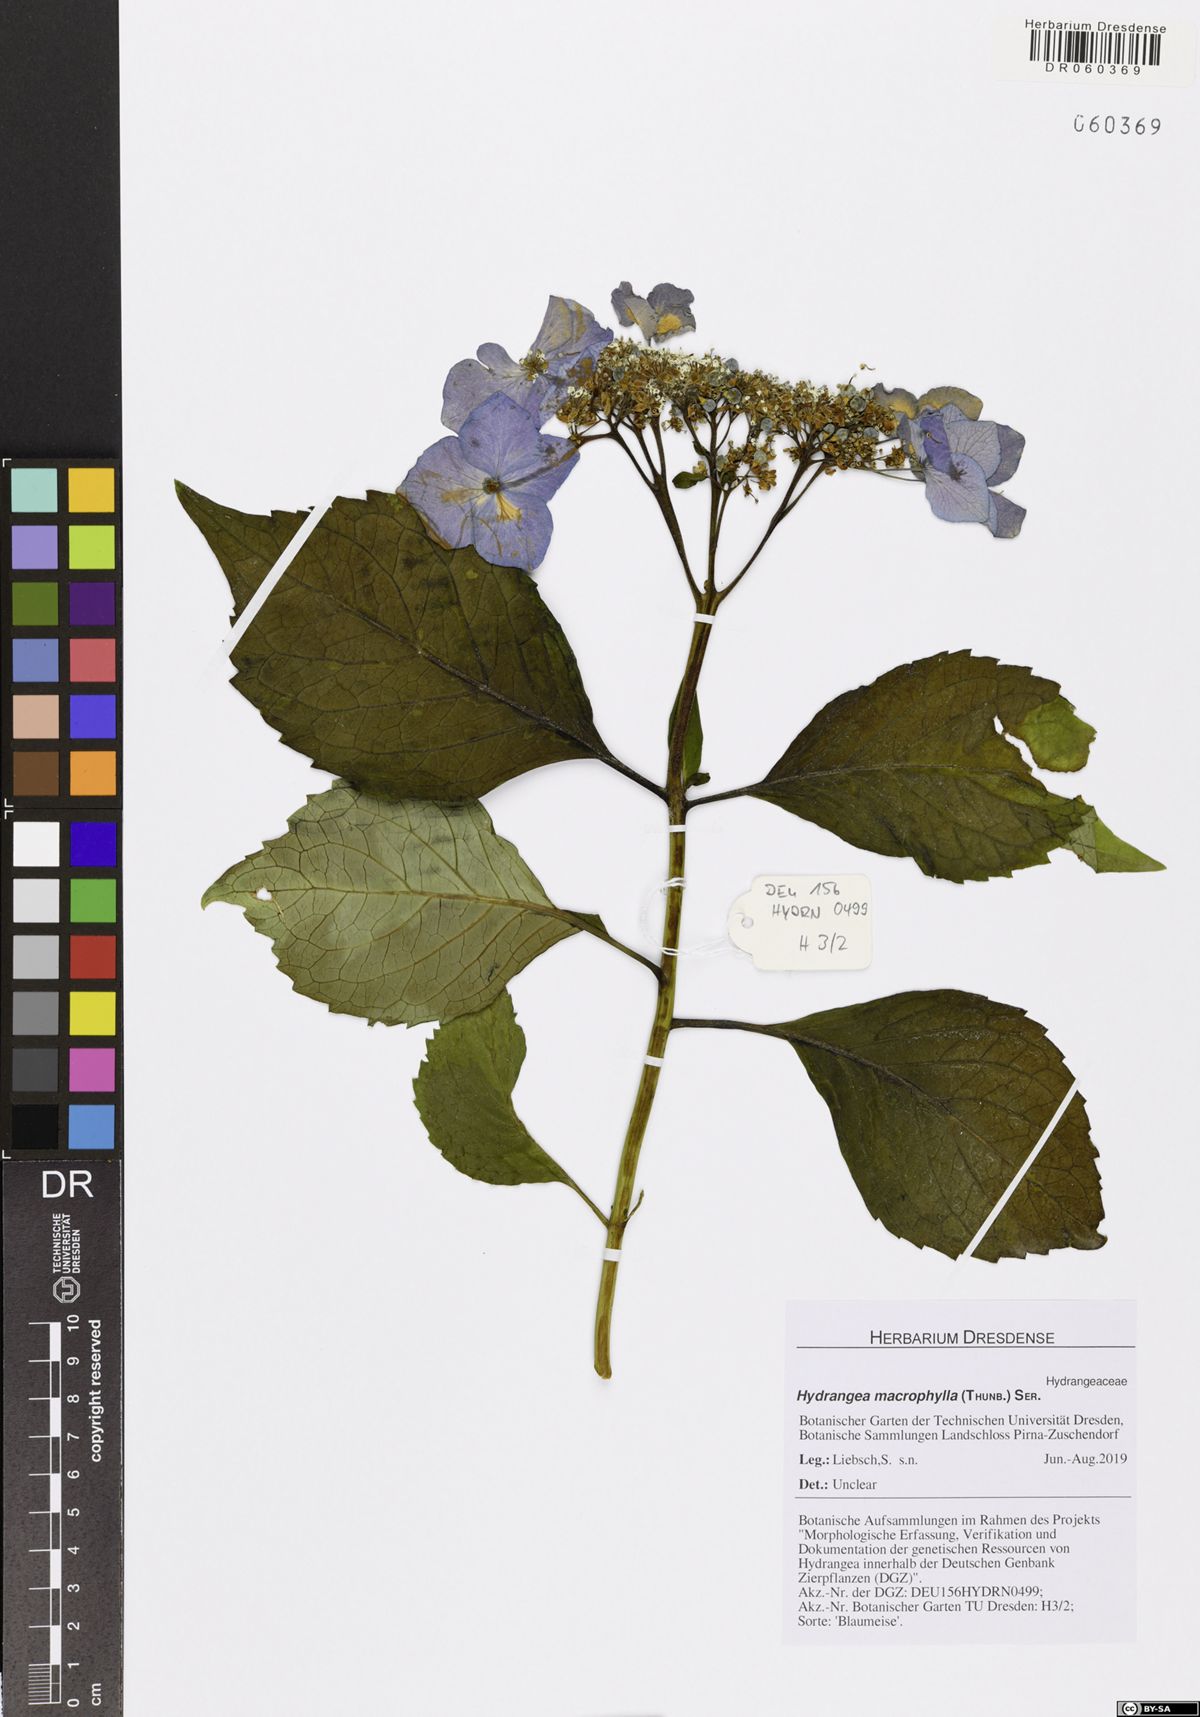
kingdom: Plantae
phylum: Tracheophyta
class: Magnoliopsida
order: Cornales
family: Hydrangeaceae
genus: Hydrangea
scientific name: Hydrangea macrophylla
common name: Hydrangea
